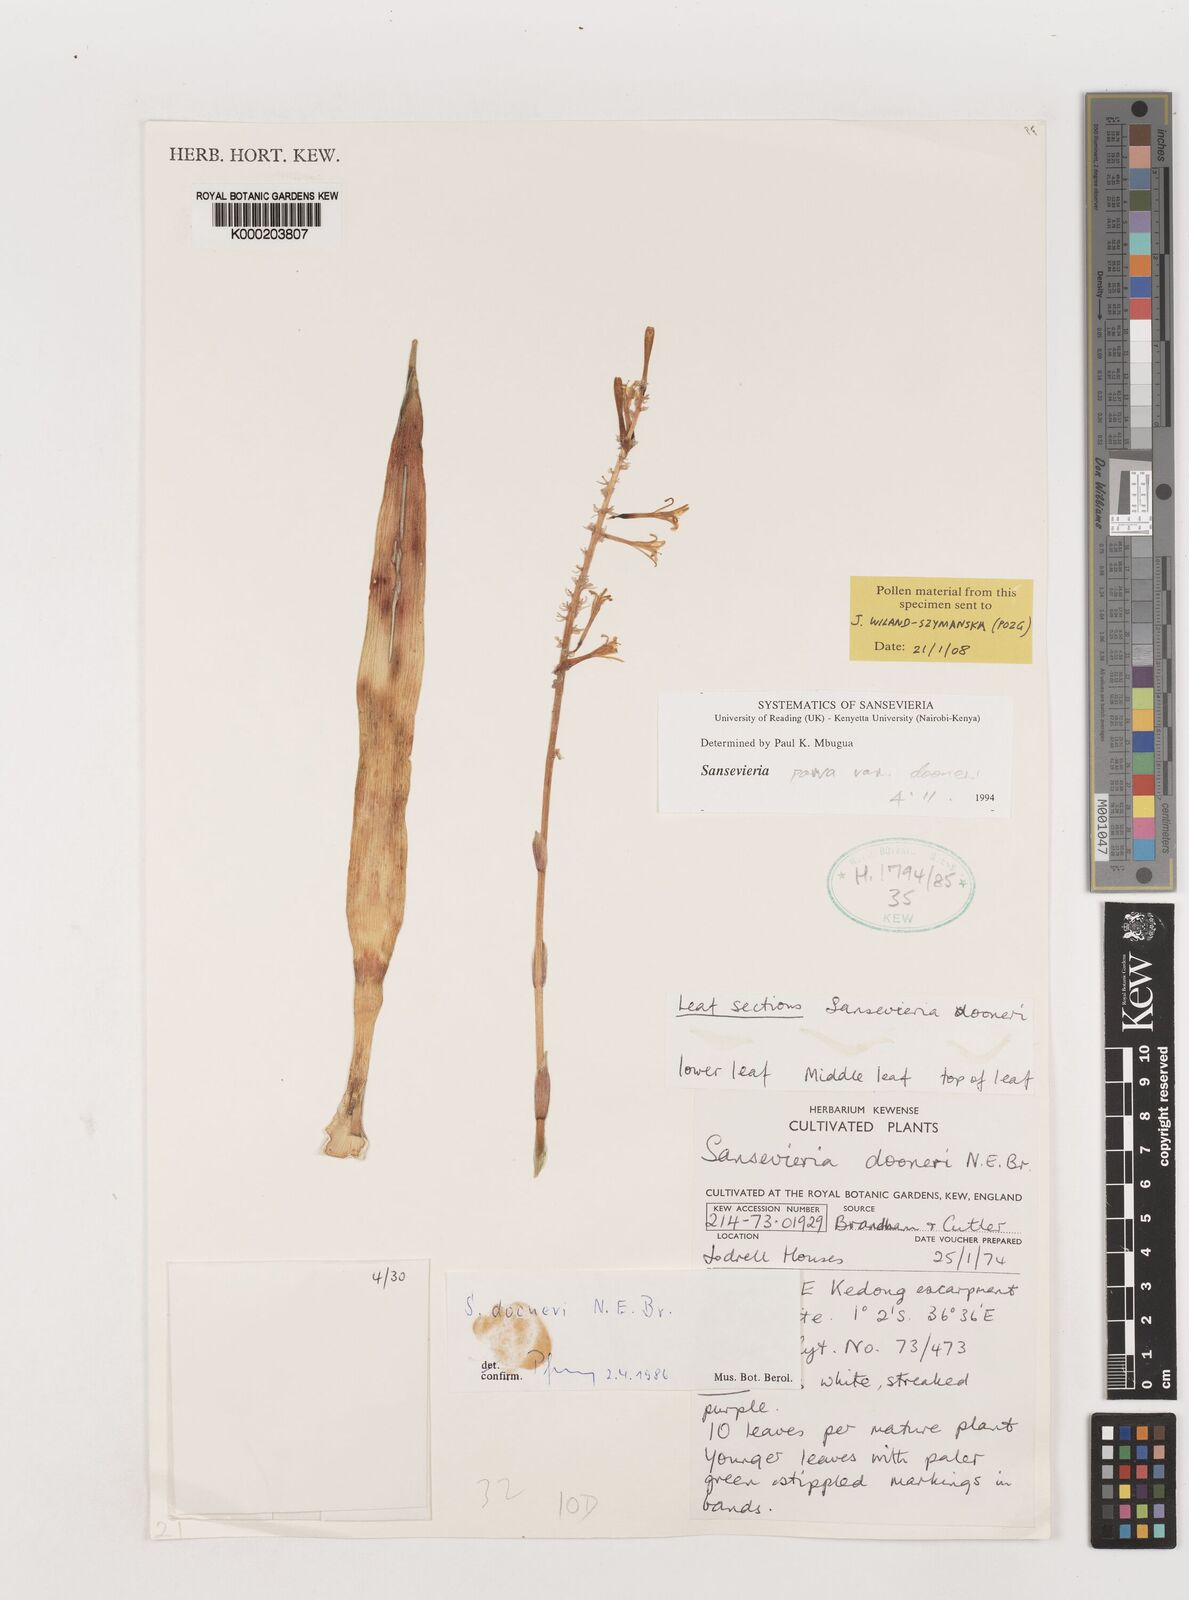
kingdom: Plantae
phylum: Tracheophyta
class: Liliopsida
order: Asparagales
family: Asparagaceae
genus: Dracaena
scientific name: Dracaena parva
